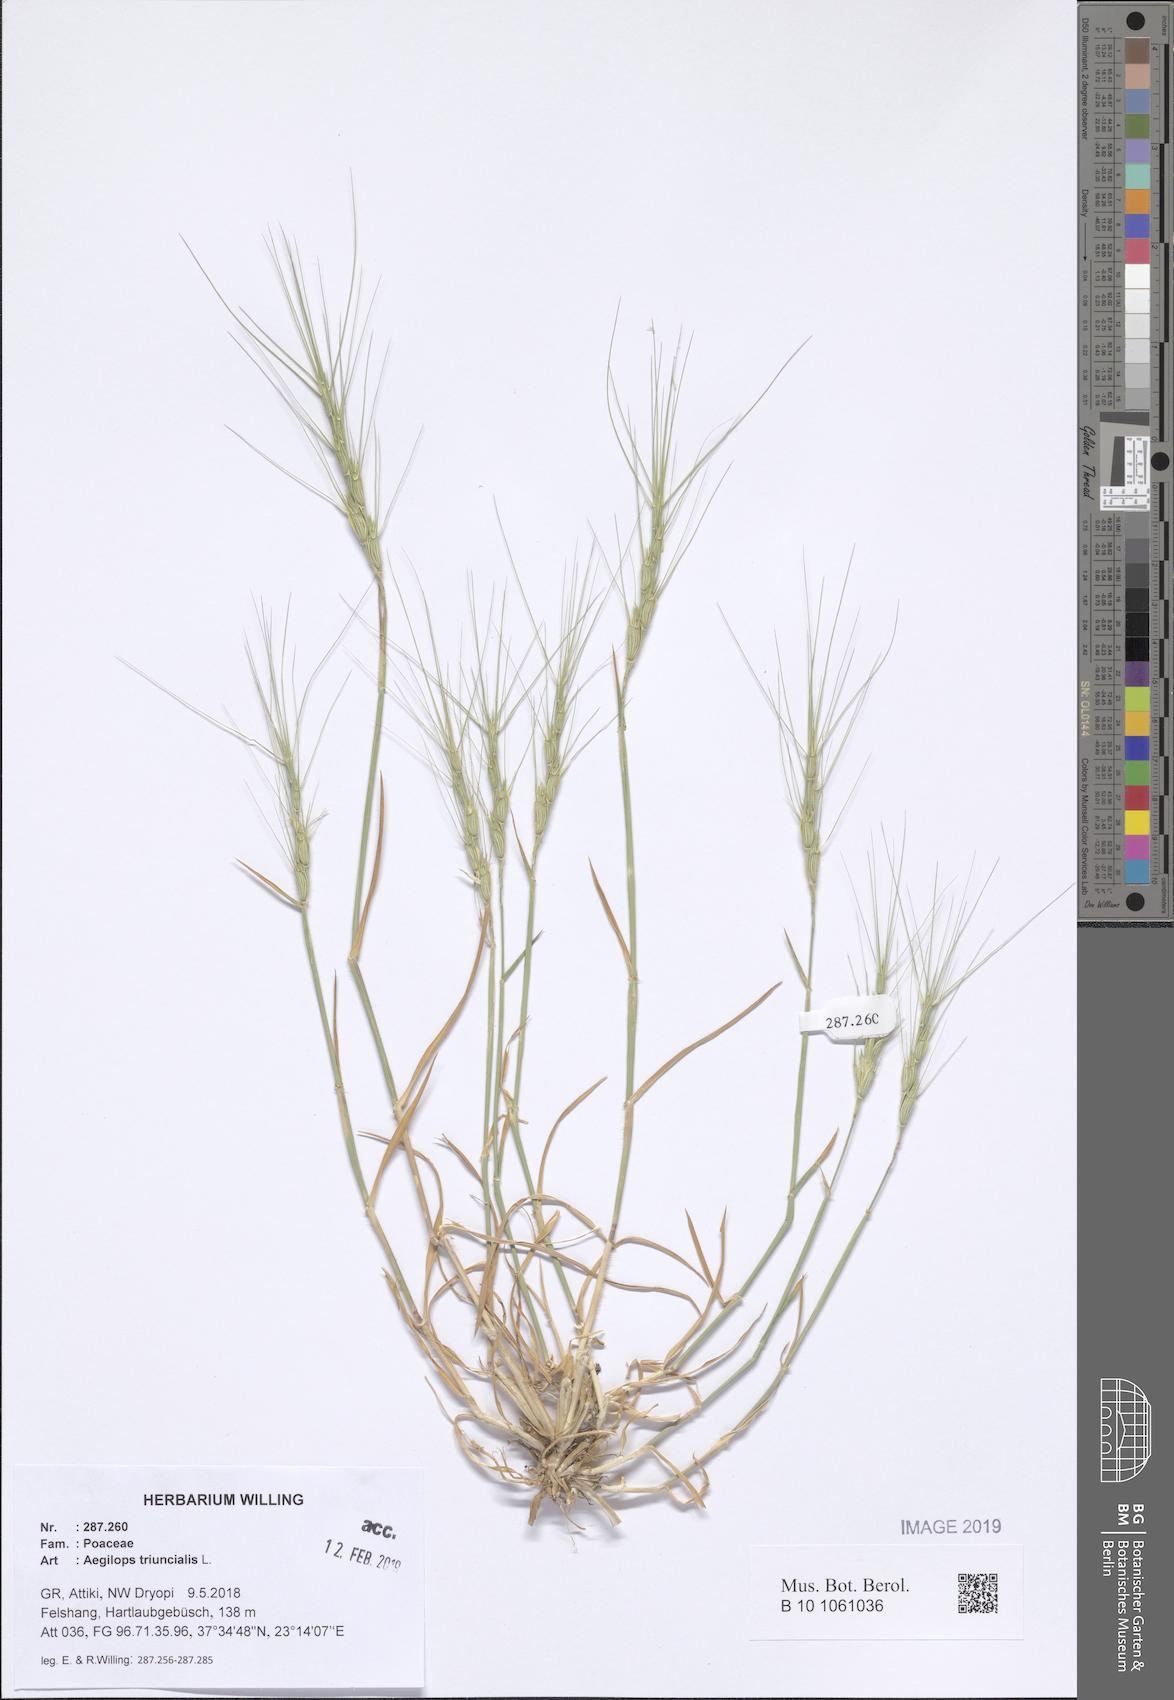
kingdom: Plantae
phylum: Tracheophyta
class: Liliopsida
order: Poales
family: Poaceae
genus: Aegilops
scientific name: Aegilops triuncialis
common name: Barb goat grass
